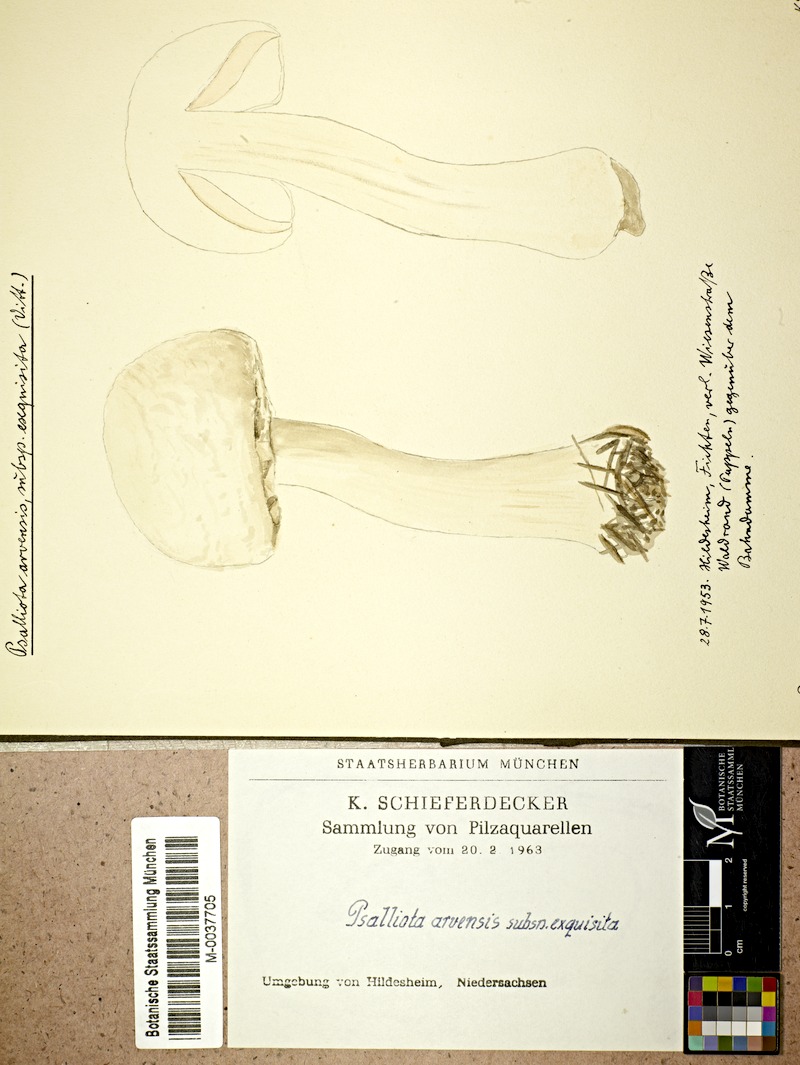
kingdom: Fungi
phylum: Basidiomycota
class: Agaricomycetes
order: Agaricales
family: Agaricaceae
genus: Agaricus
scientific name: Agaricus arvensis
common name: Horse mushroom
